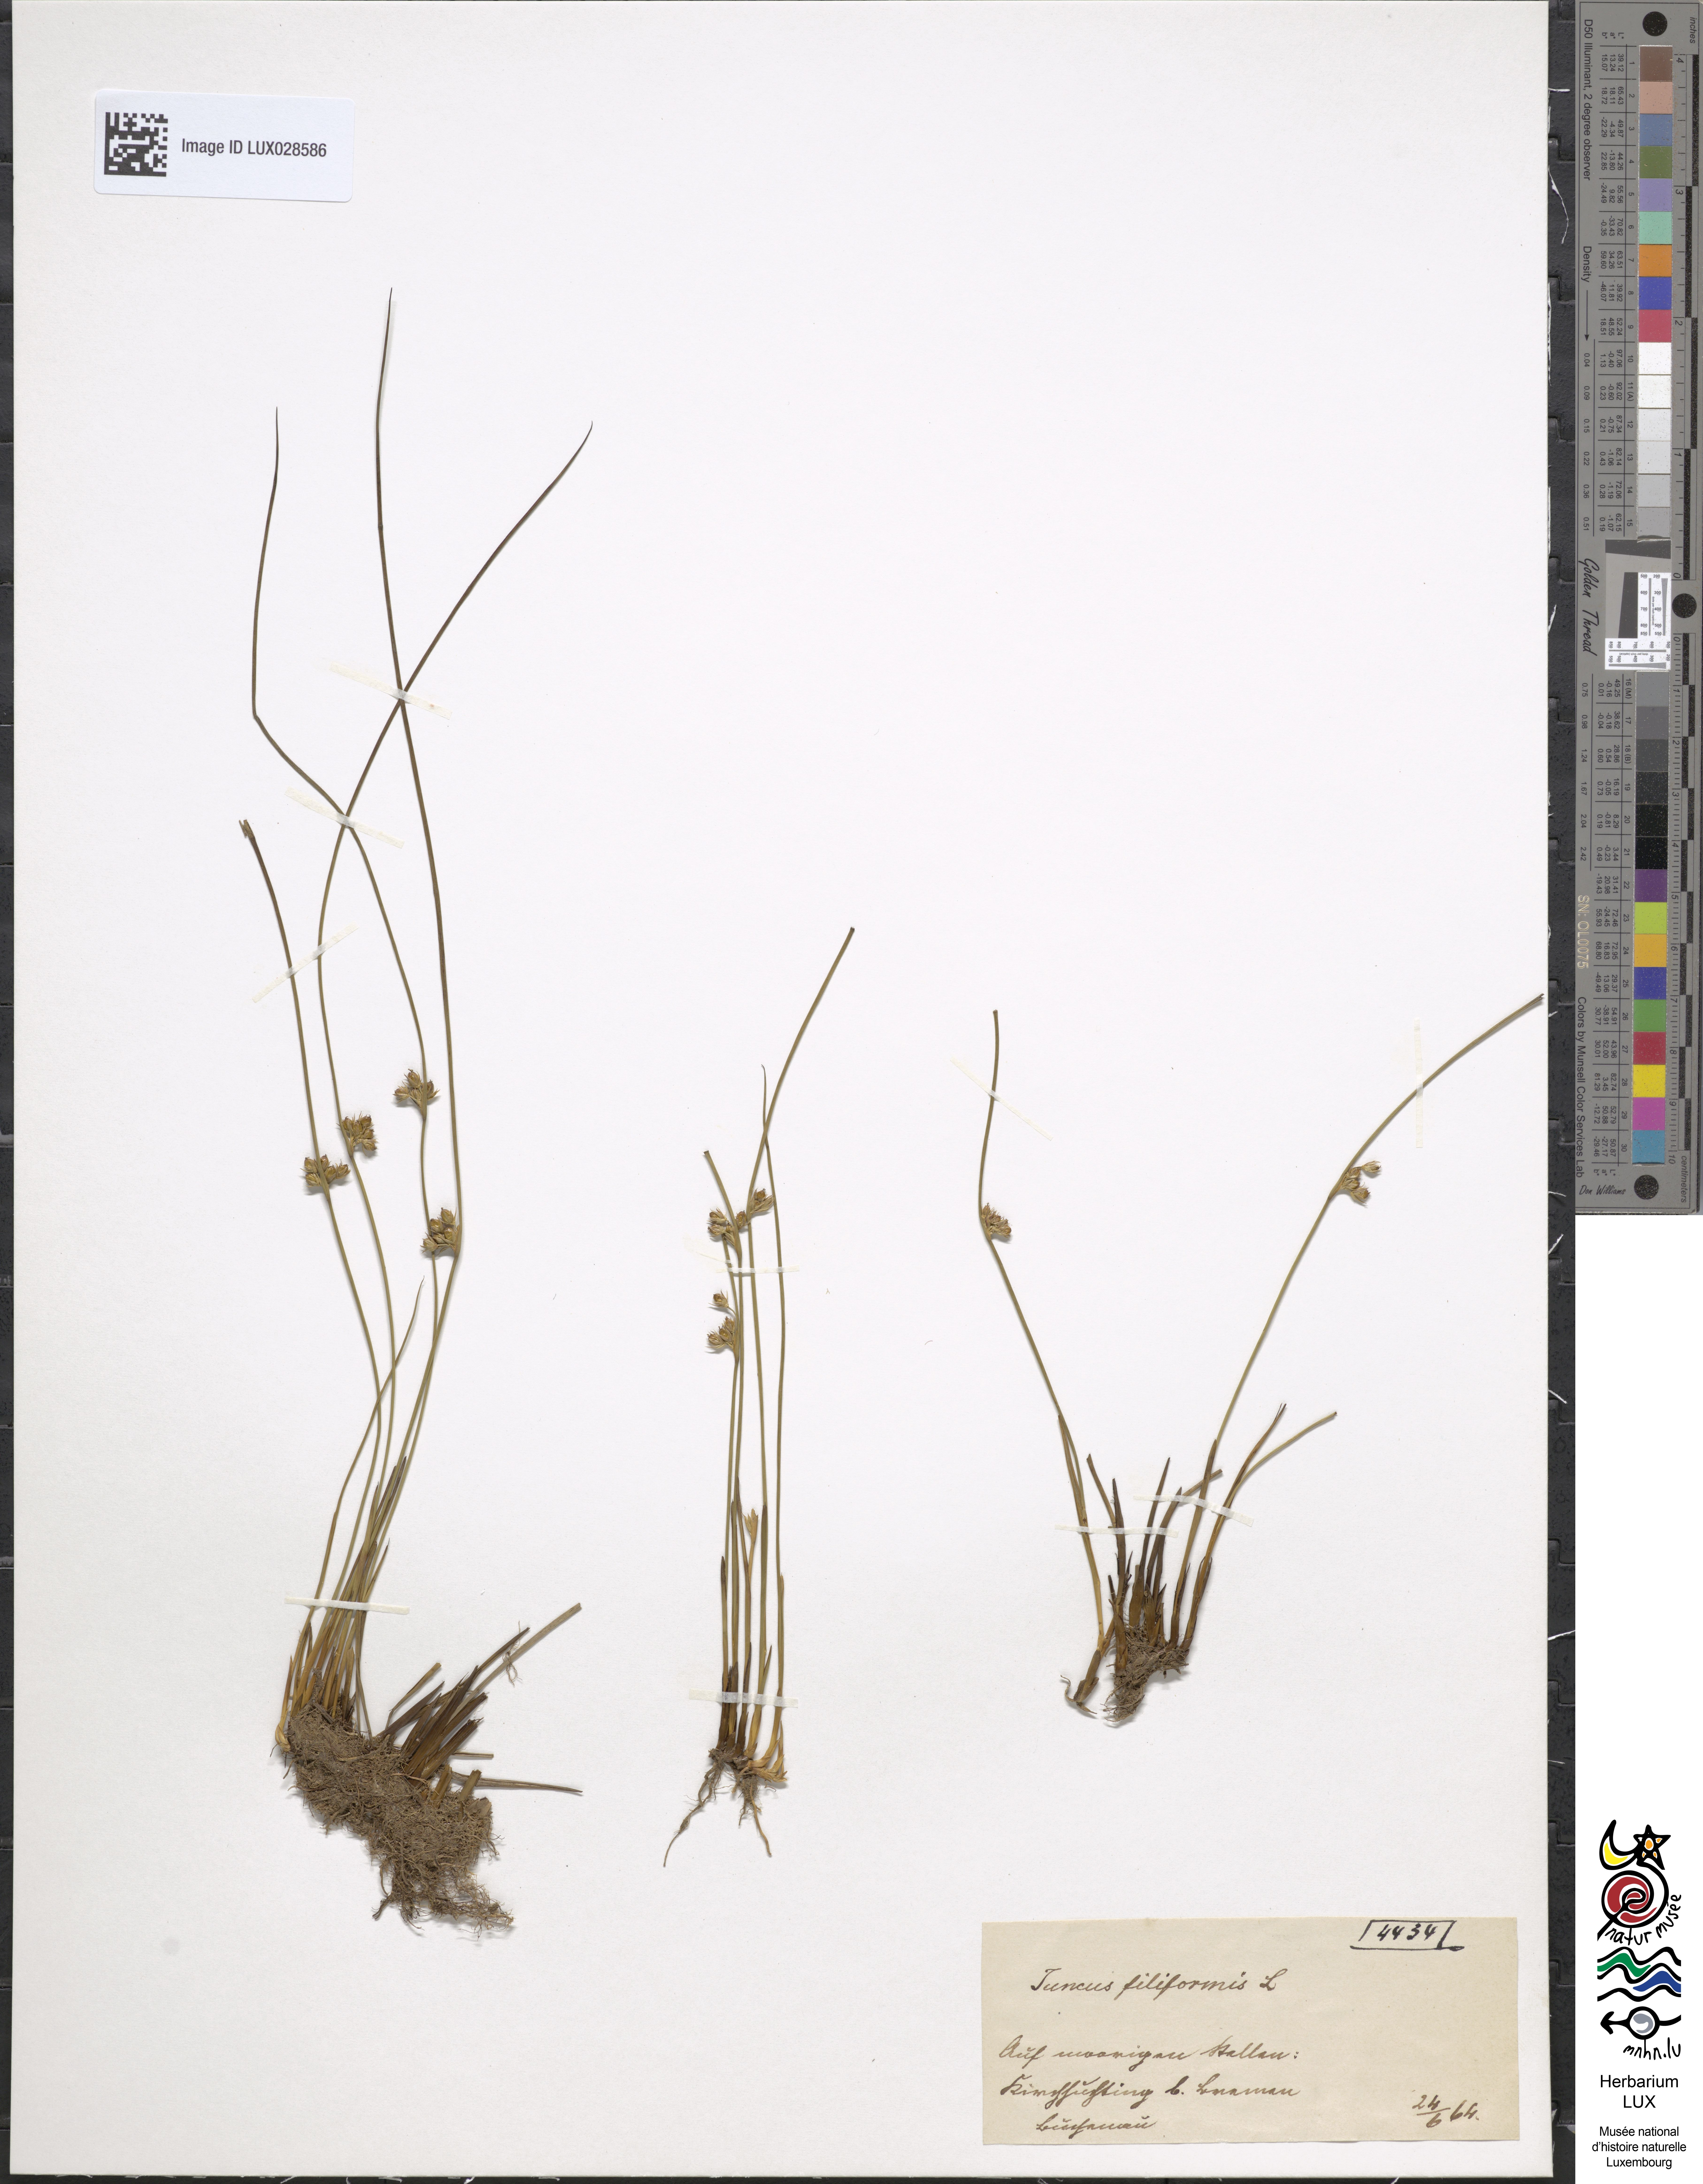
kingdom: Plantae
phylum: Tracheophyta
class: Liliopsida
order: Poales
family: Juncaceae
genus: Juncus
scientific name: Juncus filiformis
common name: Thread rush
